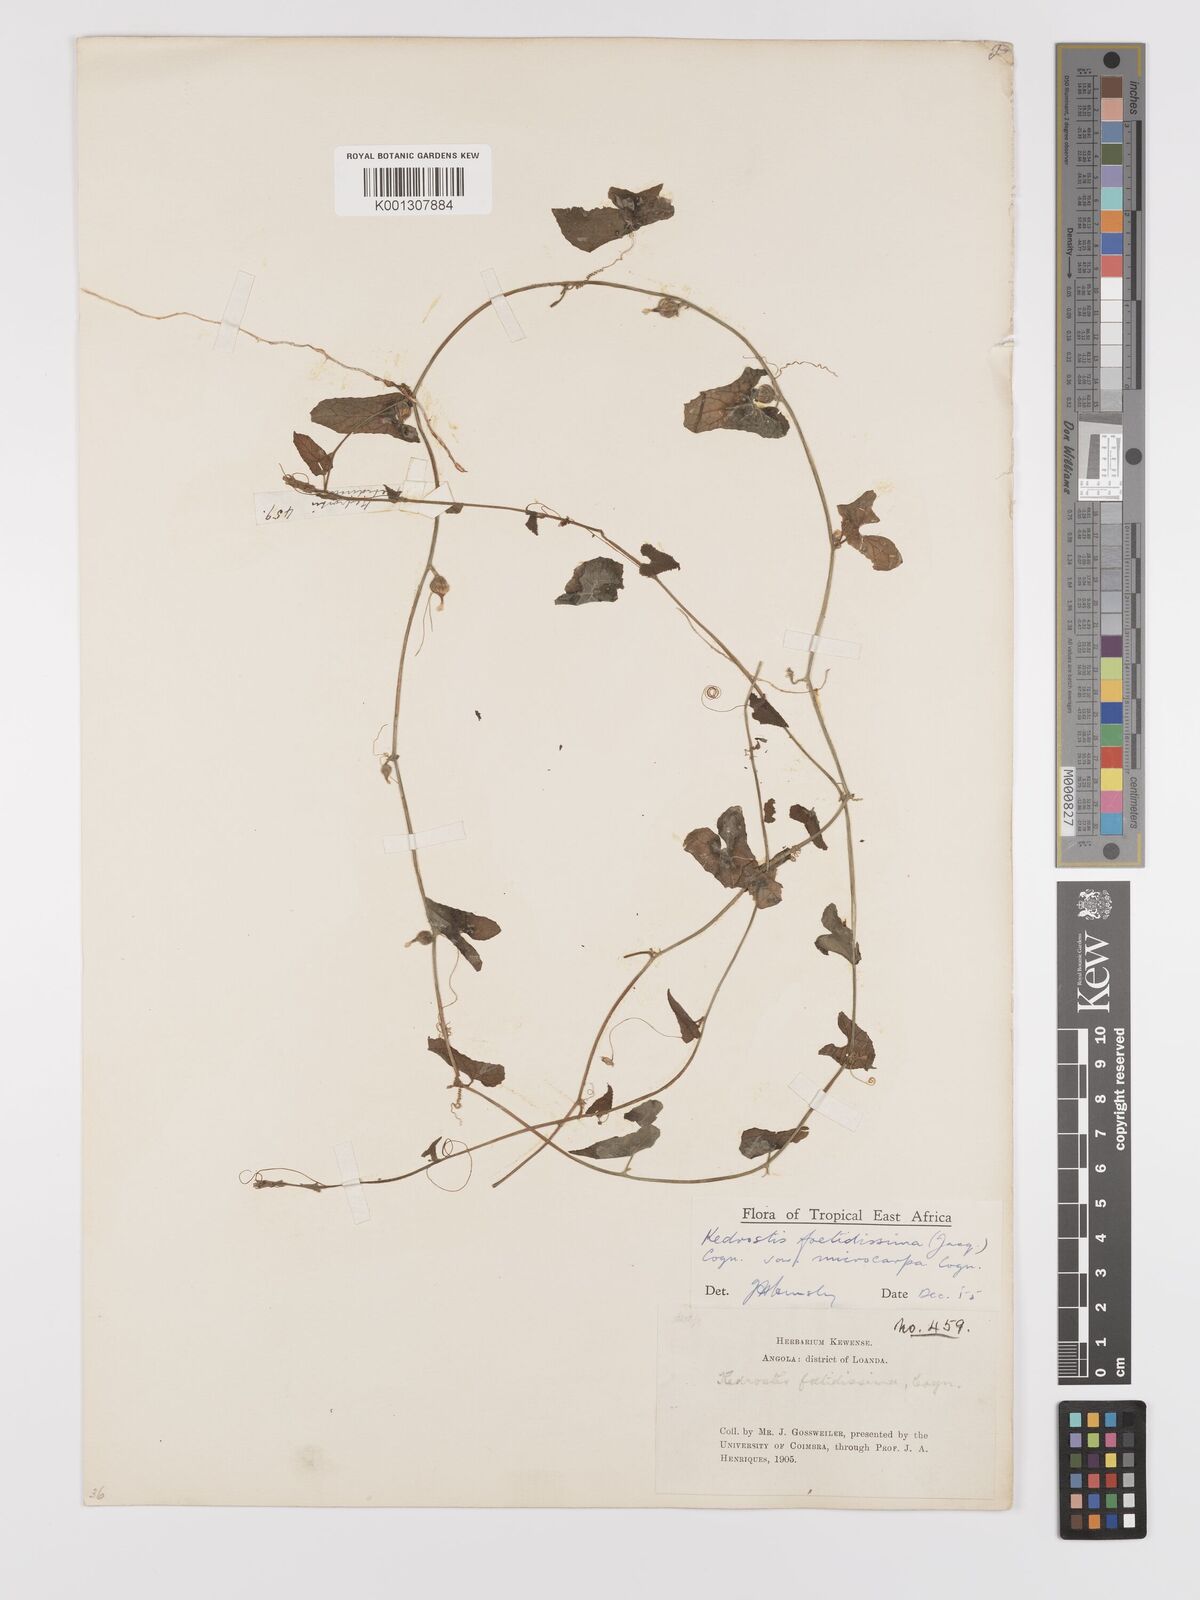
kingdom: Plantae
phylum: Tracheophyta
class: Magnoliopsida
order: Cucurbitales
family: Cucurbitaceae
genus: Kedrostis
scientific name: Kedrostis foetidissima
